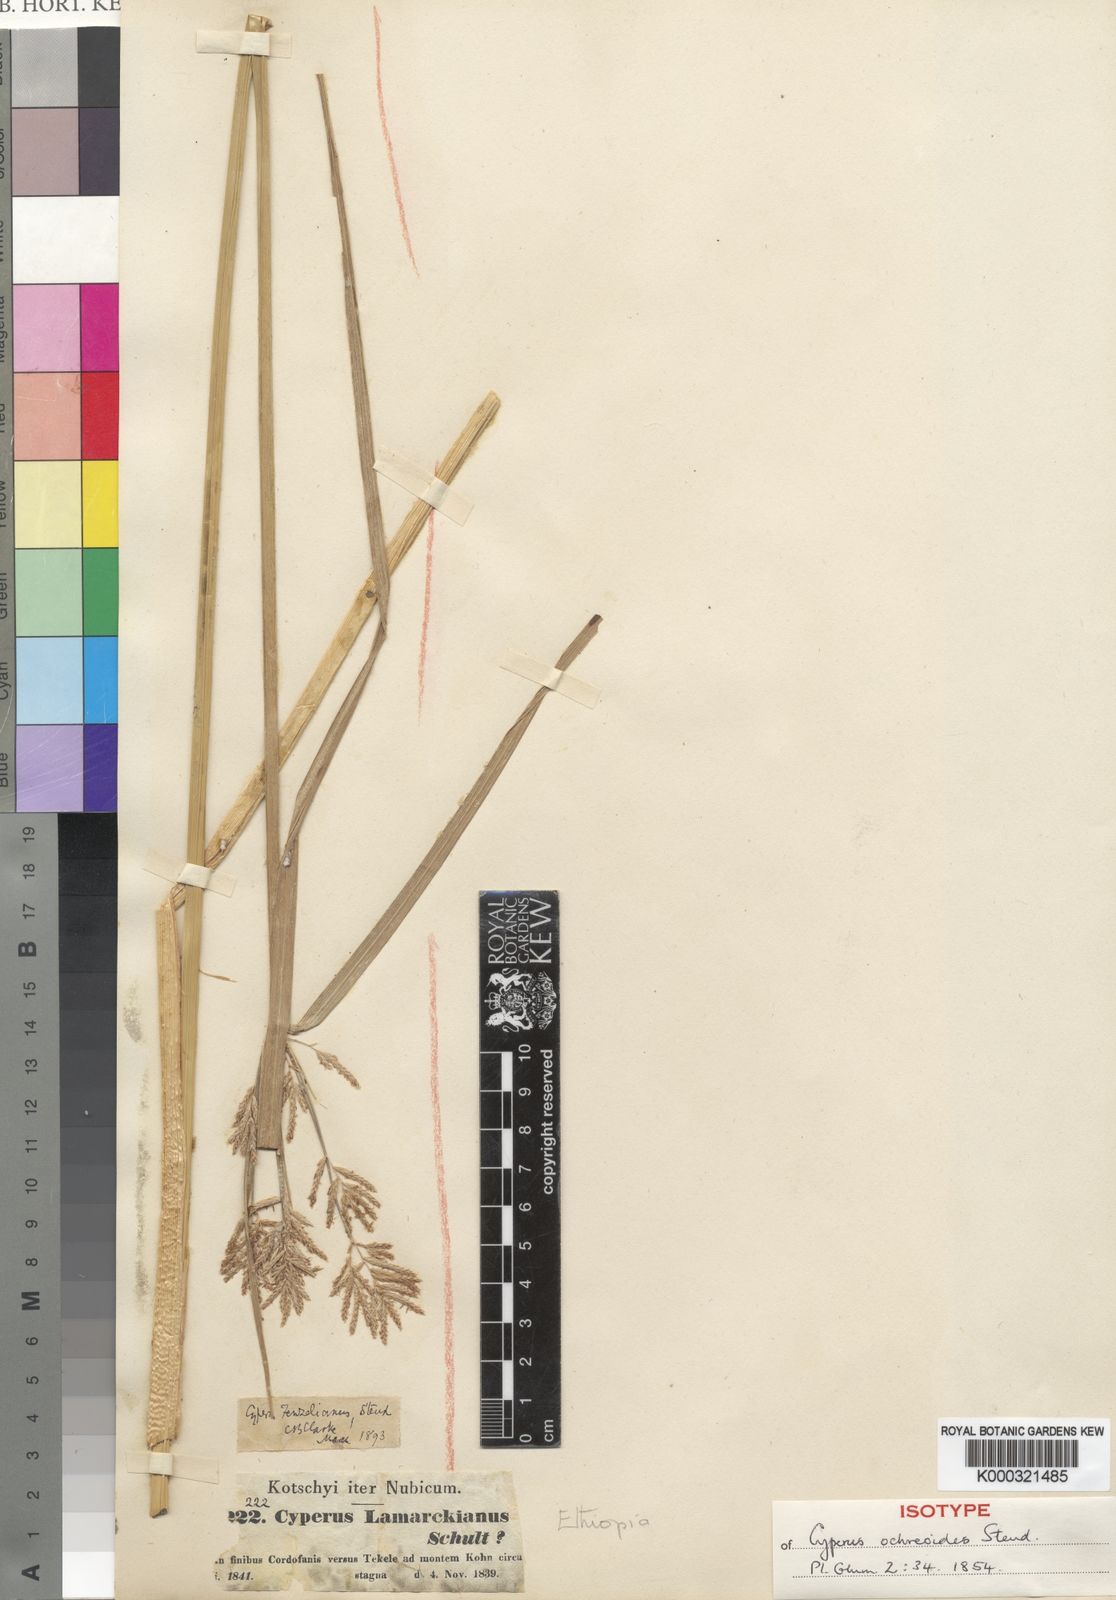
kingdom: Plantae
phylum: Tracheophyta
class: Liliopsida
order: Poales
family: Cyperaceae
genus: Cyperus
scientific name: Cyperus longus
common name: Galingale
